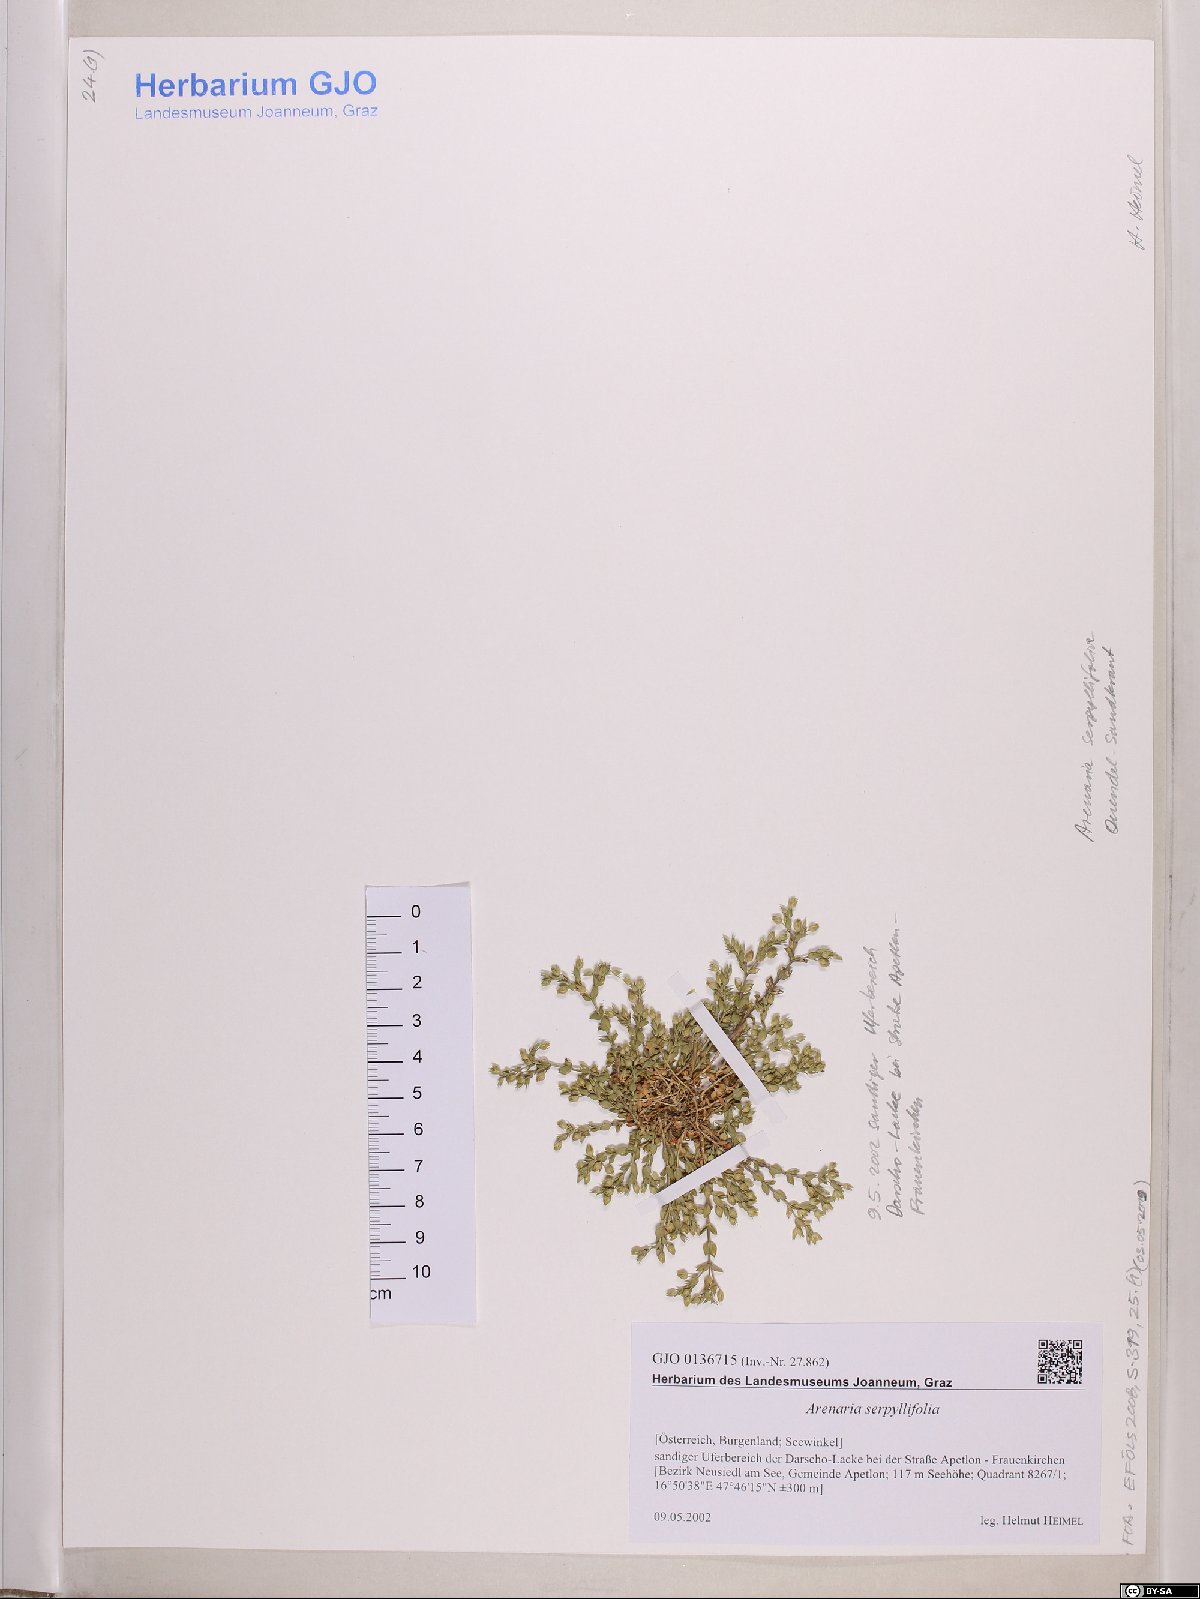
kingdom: Plantae
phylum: Tracheophyta
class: Magnoliopsida
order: Caryophyllales
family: Caryophyllaceae
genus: Arenaria
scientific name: Arenaria serpyllifolia
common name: Thyme-leaved sandwort
